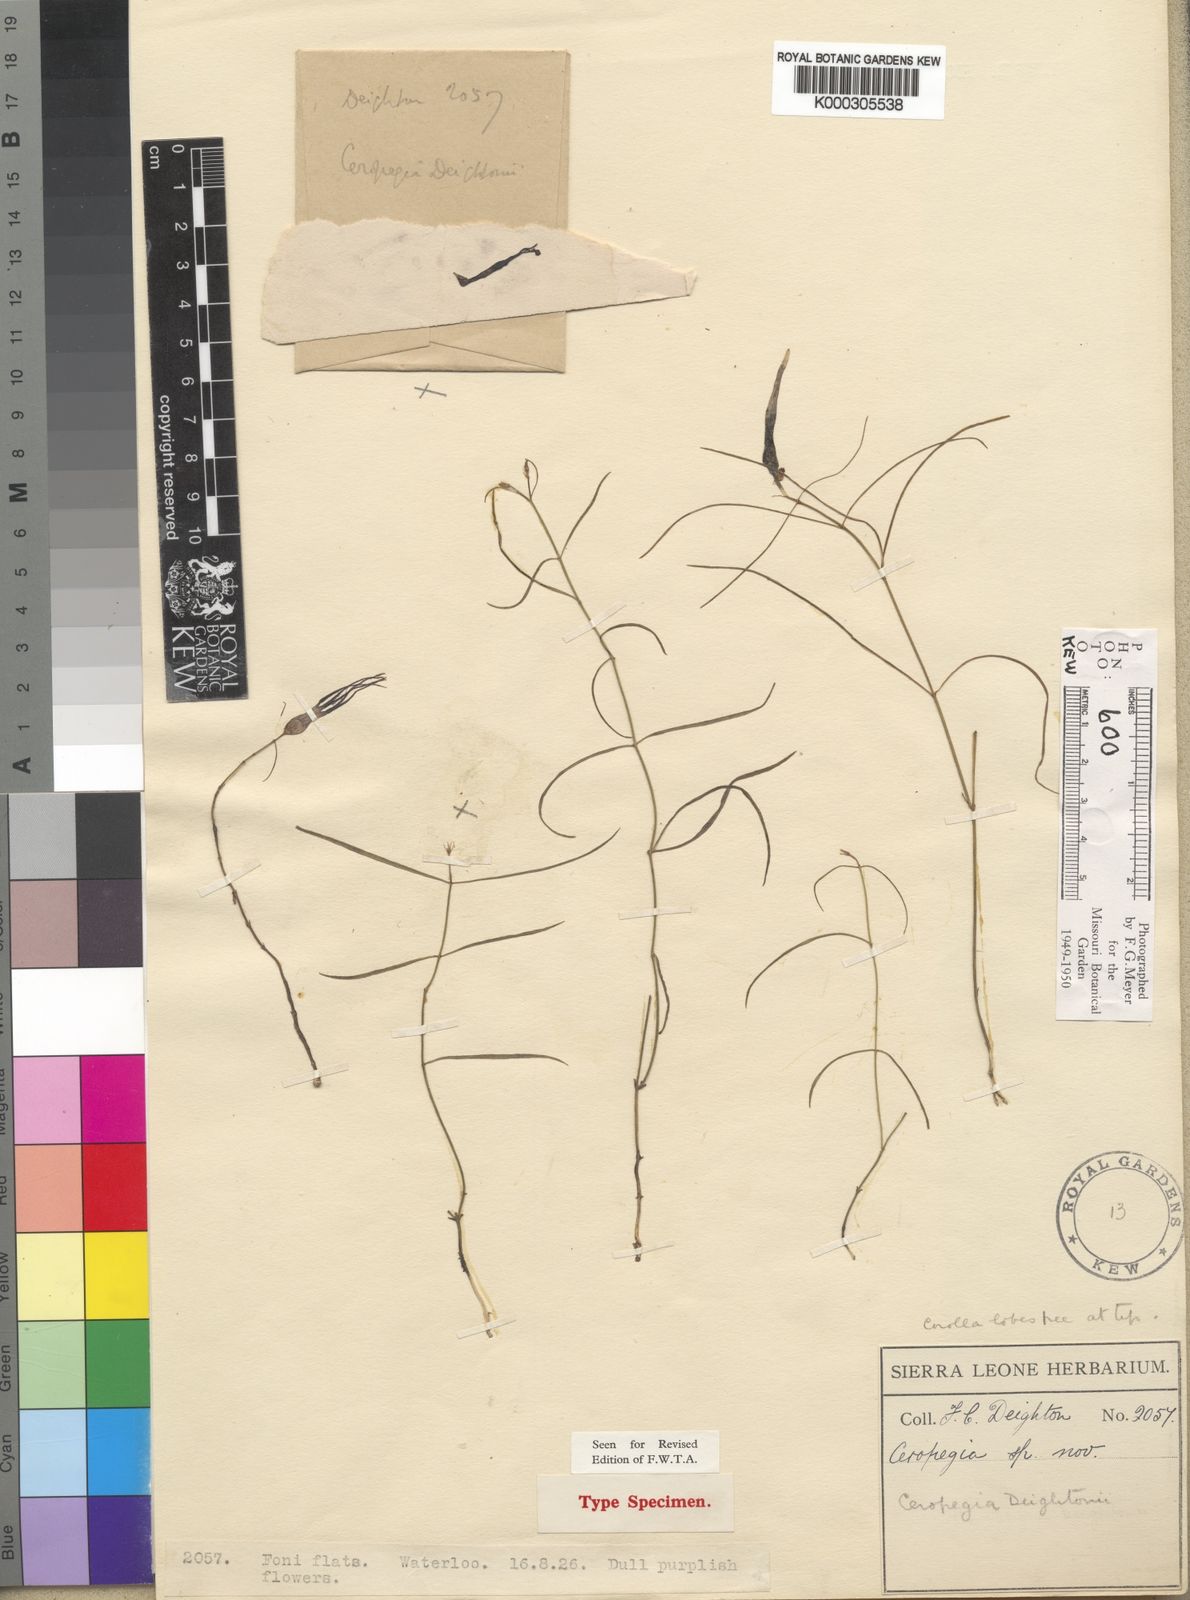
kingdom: Plantae
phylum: Tracheophyta
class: Magnoliopsida
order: Gentianales
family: Apocynaceae
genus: Ceropegia
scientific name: Ceropegia deightonii
